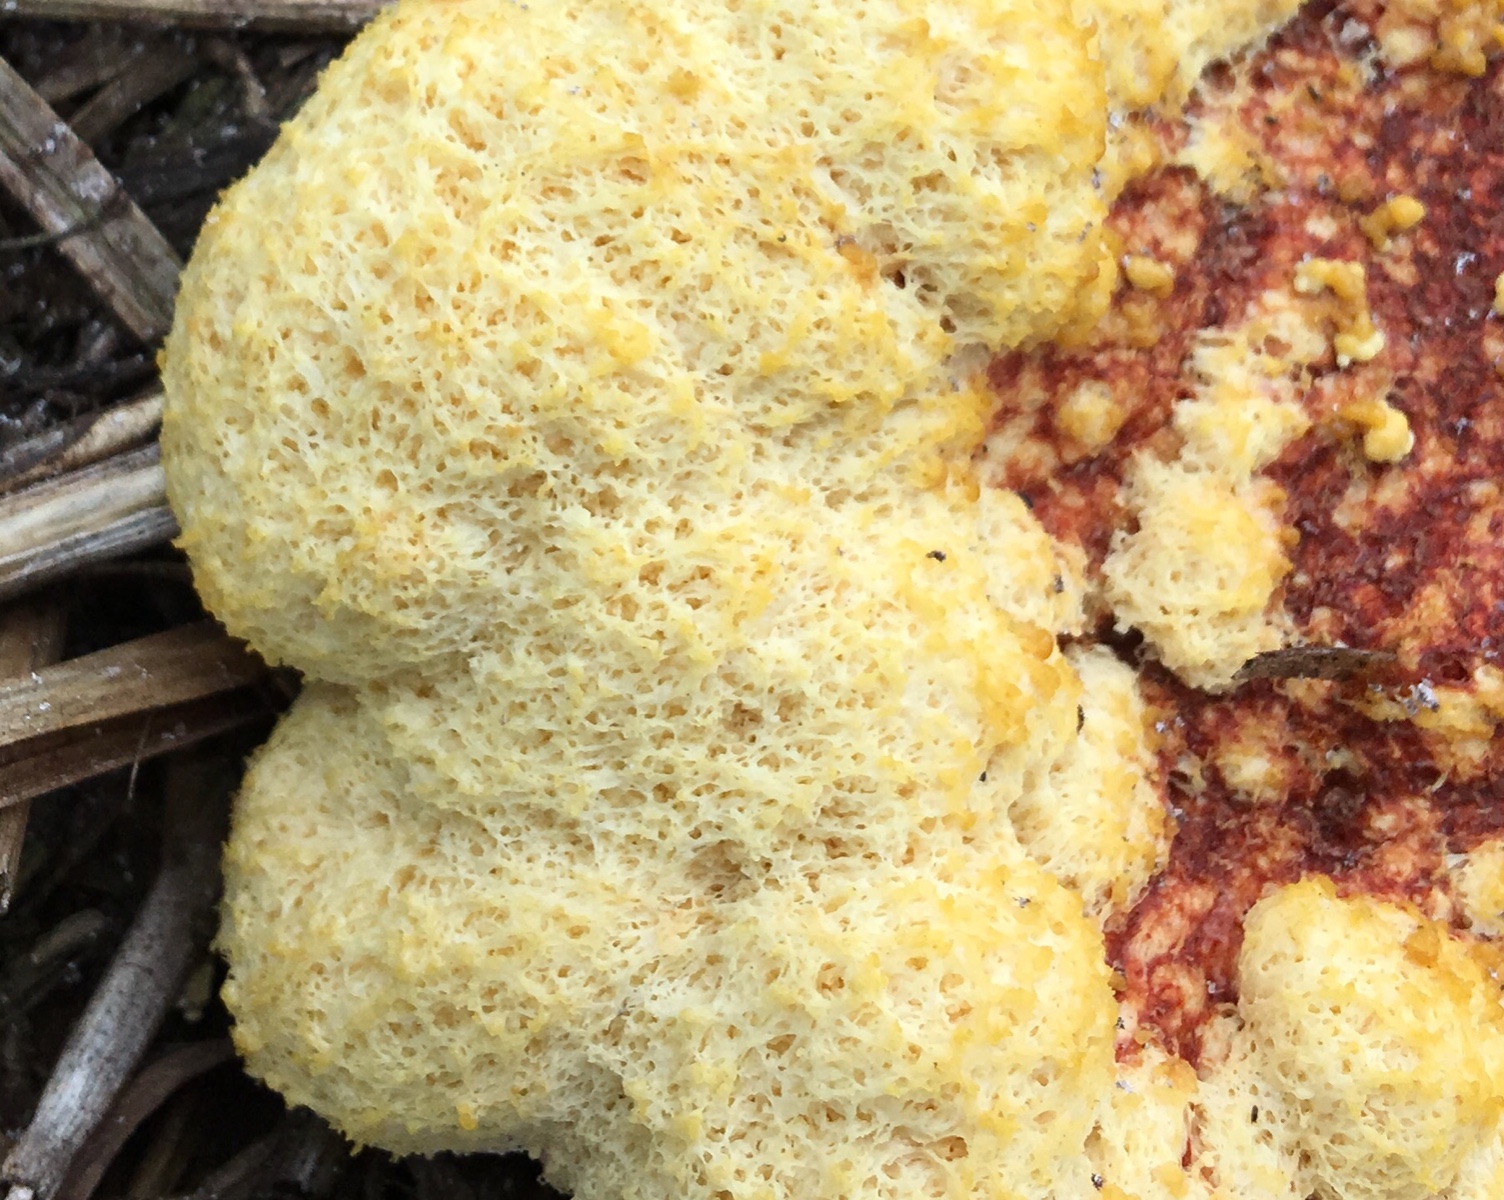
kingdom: Protozoa
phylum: Mycetozoa
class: Myxomycetes
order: Physarales
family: Physaraceae
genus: Fuligo
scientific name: Fuligo septica
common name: Dog vomit slime mold
